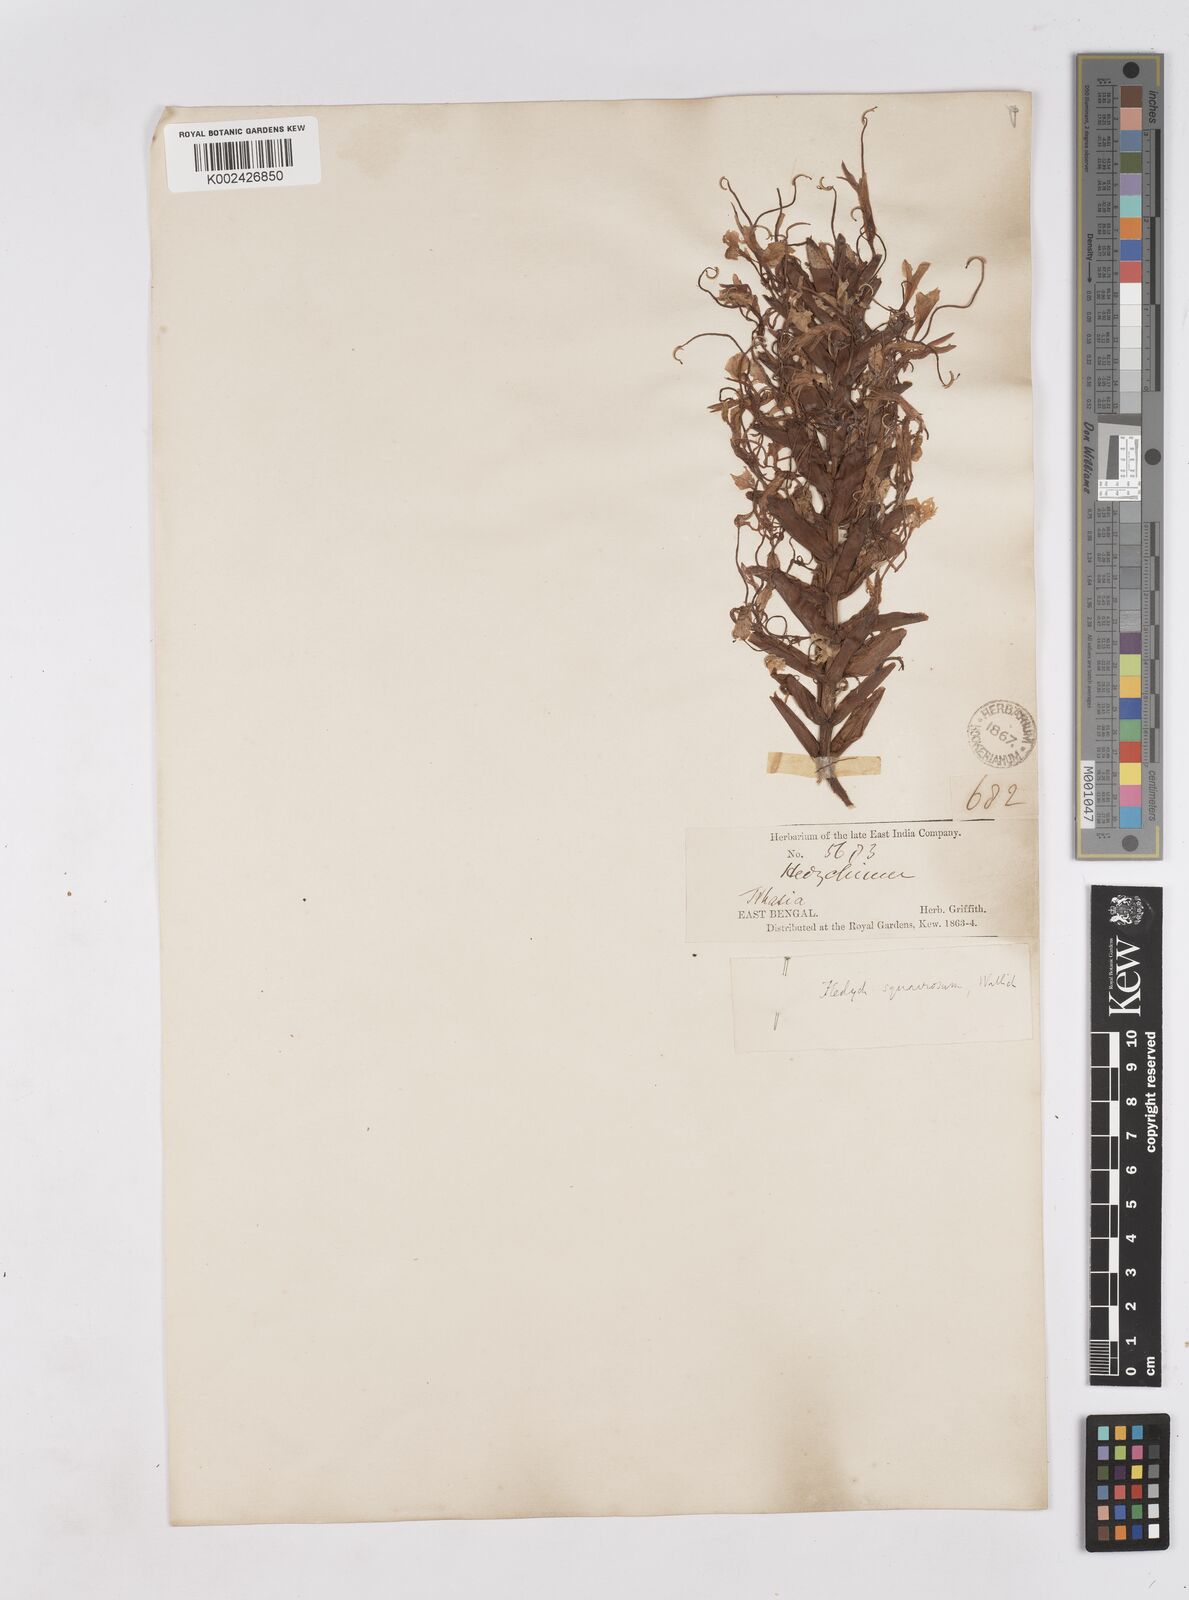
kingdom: Plantae
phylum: Tracheophyta
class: Liliopsida
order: Zingiberales
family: Zingiberaceae
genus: Hedychium
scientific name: Hedychium coccineum
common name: Red ginger-lily
